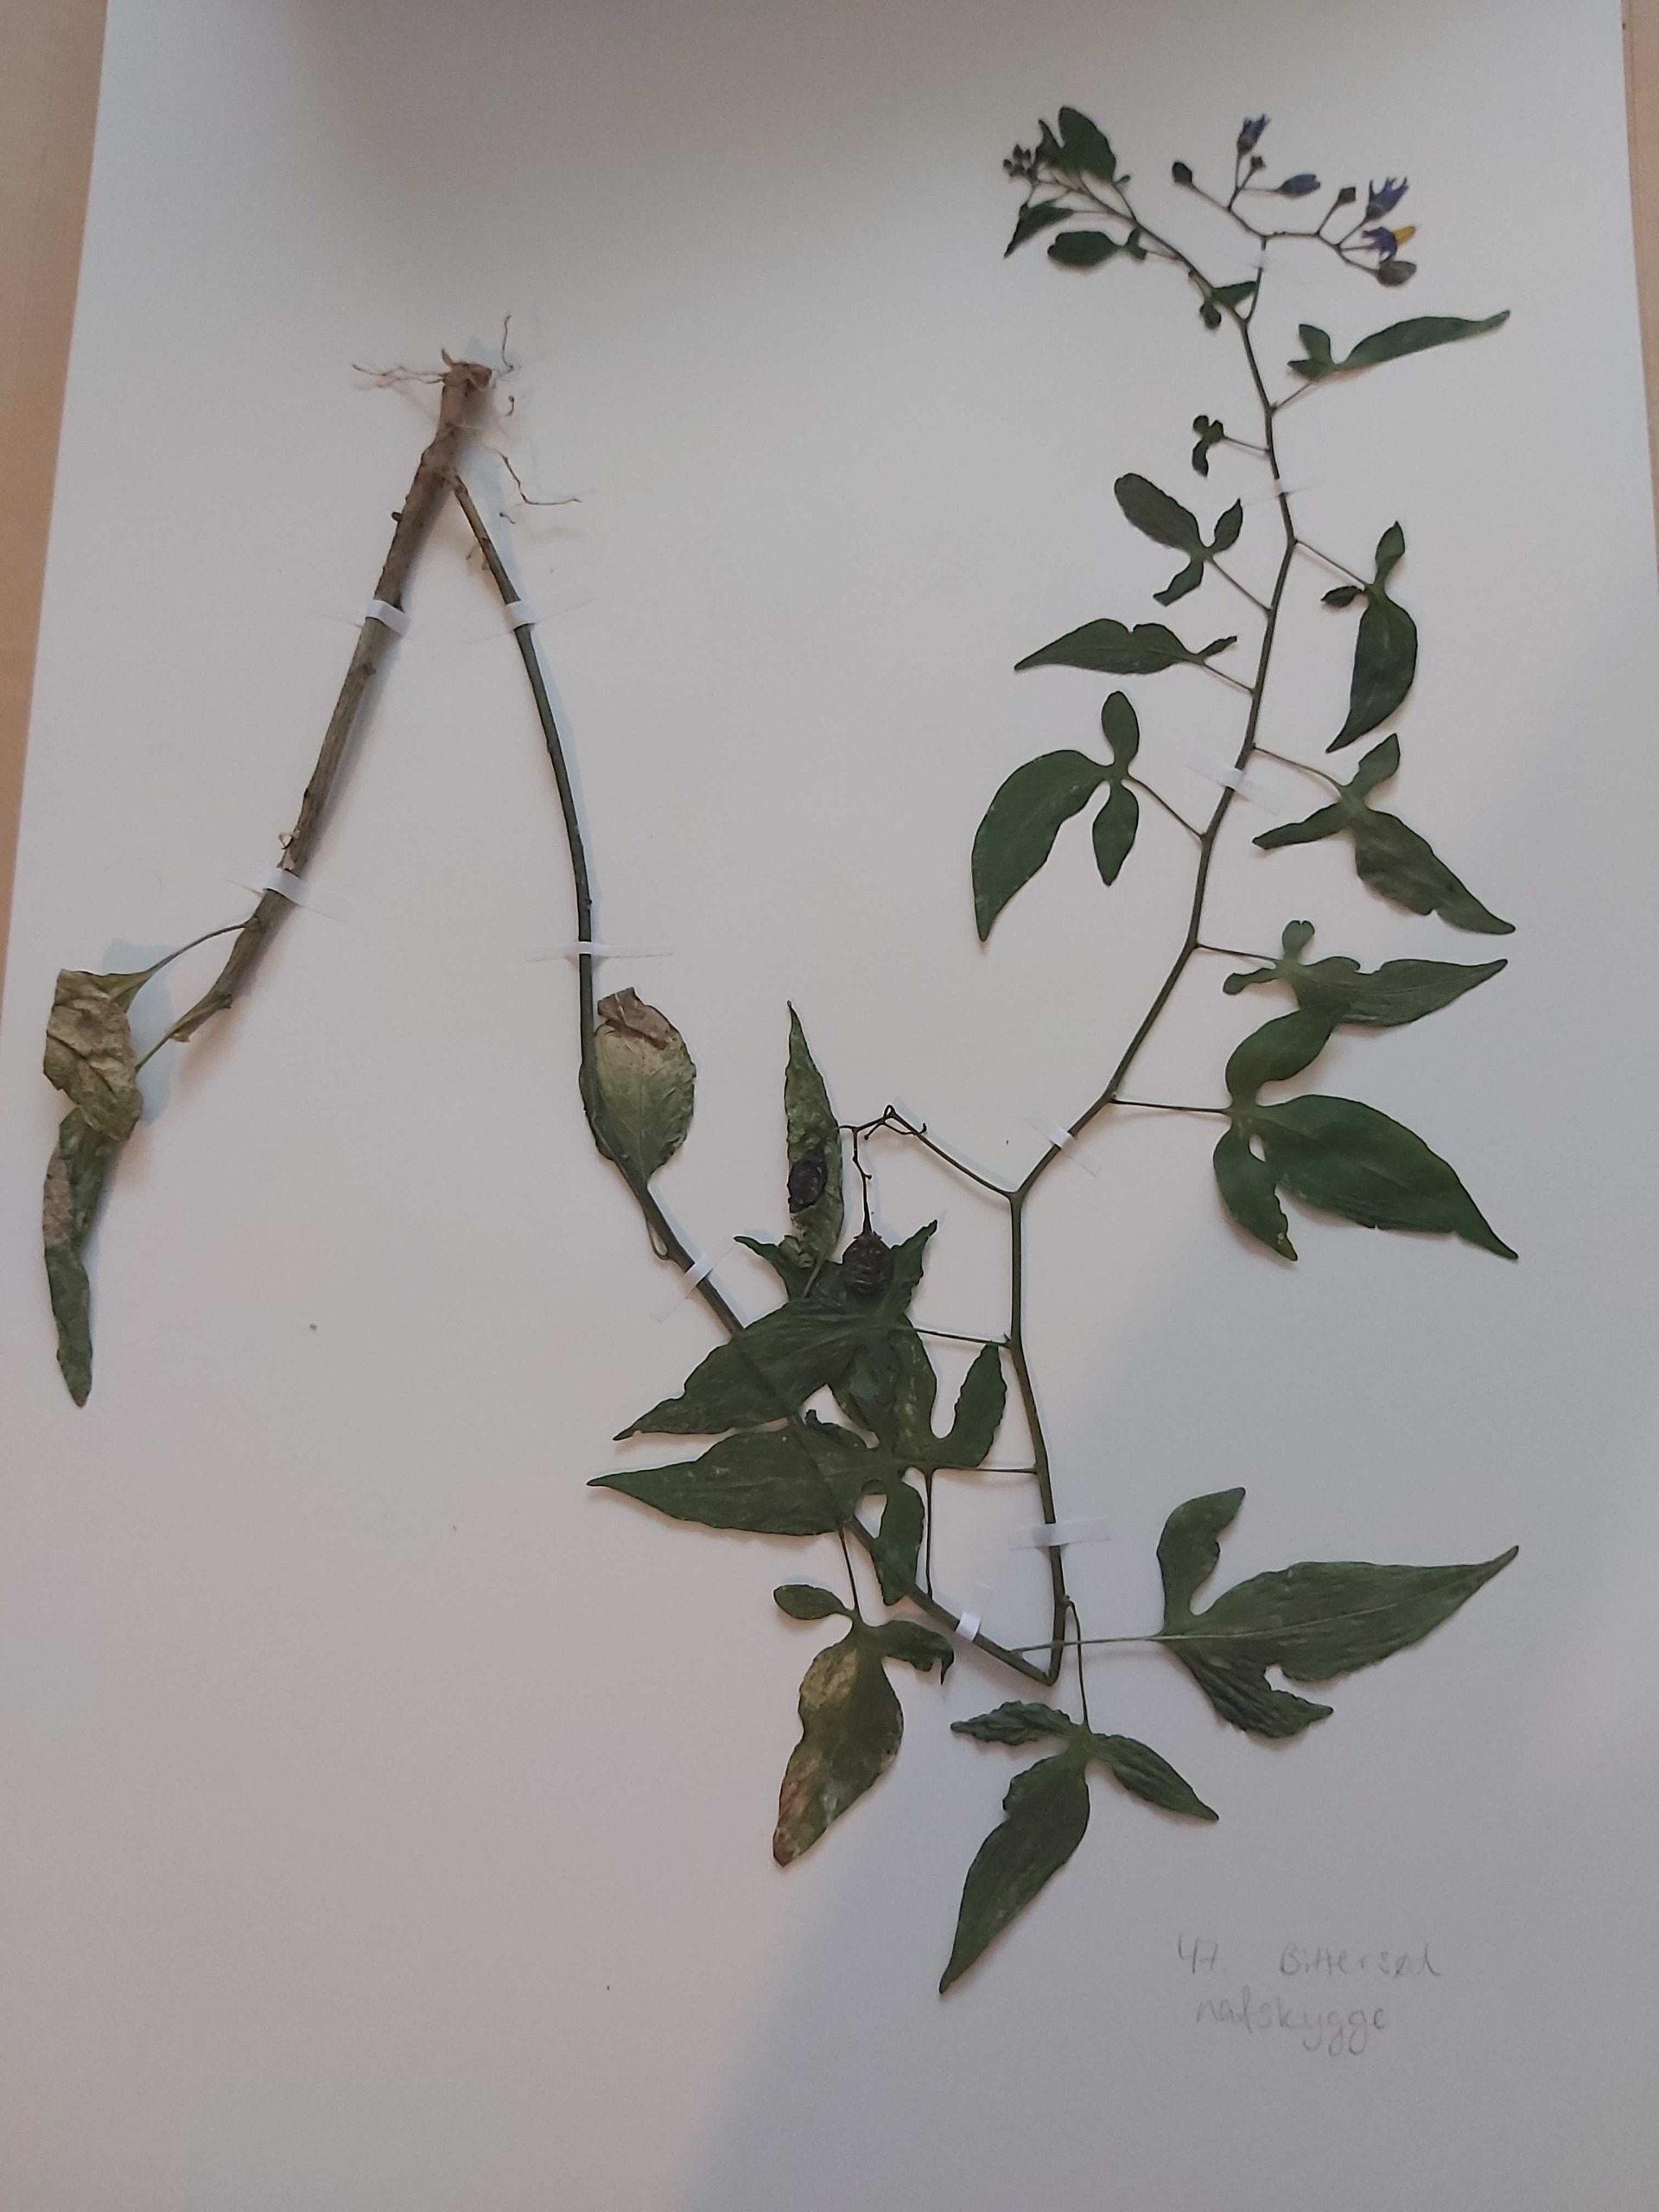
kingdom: Plantae
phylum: Tracheophyta
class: Magnoliopsida
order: Solanales
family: Solanaceae
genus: Solanum
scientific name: Solanum dulcamara
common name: Bittersød natskygge
